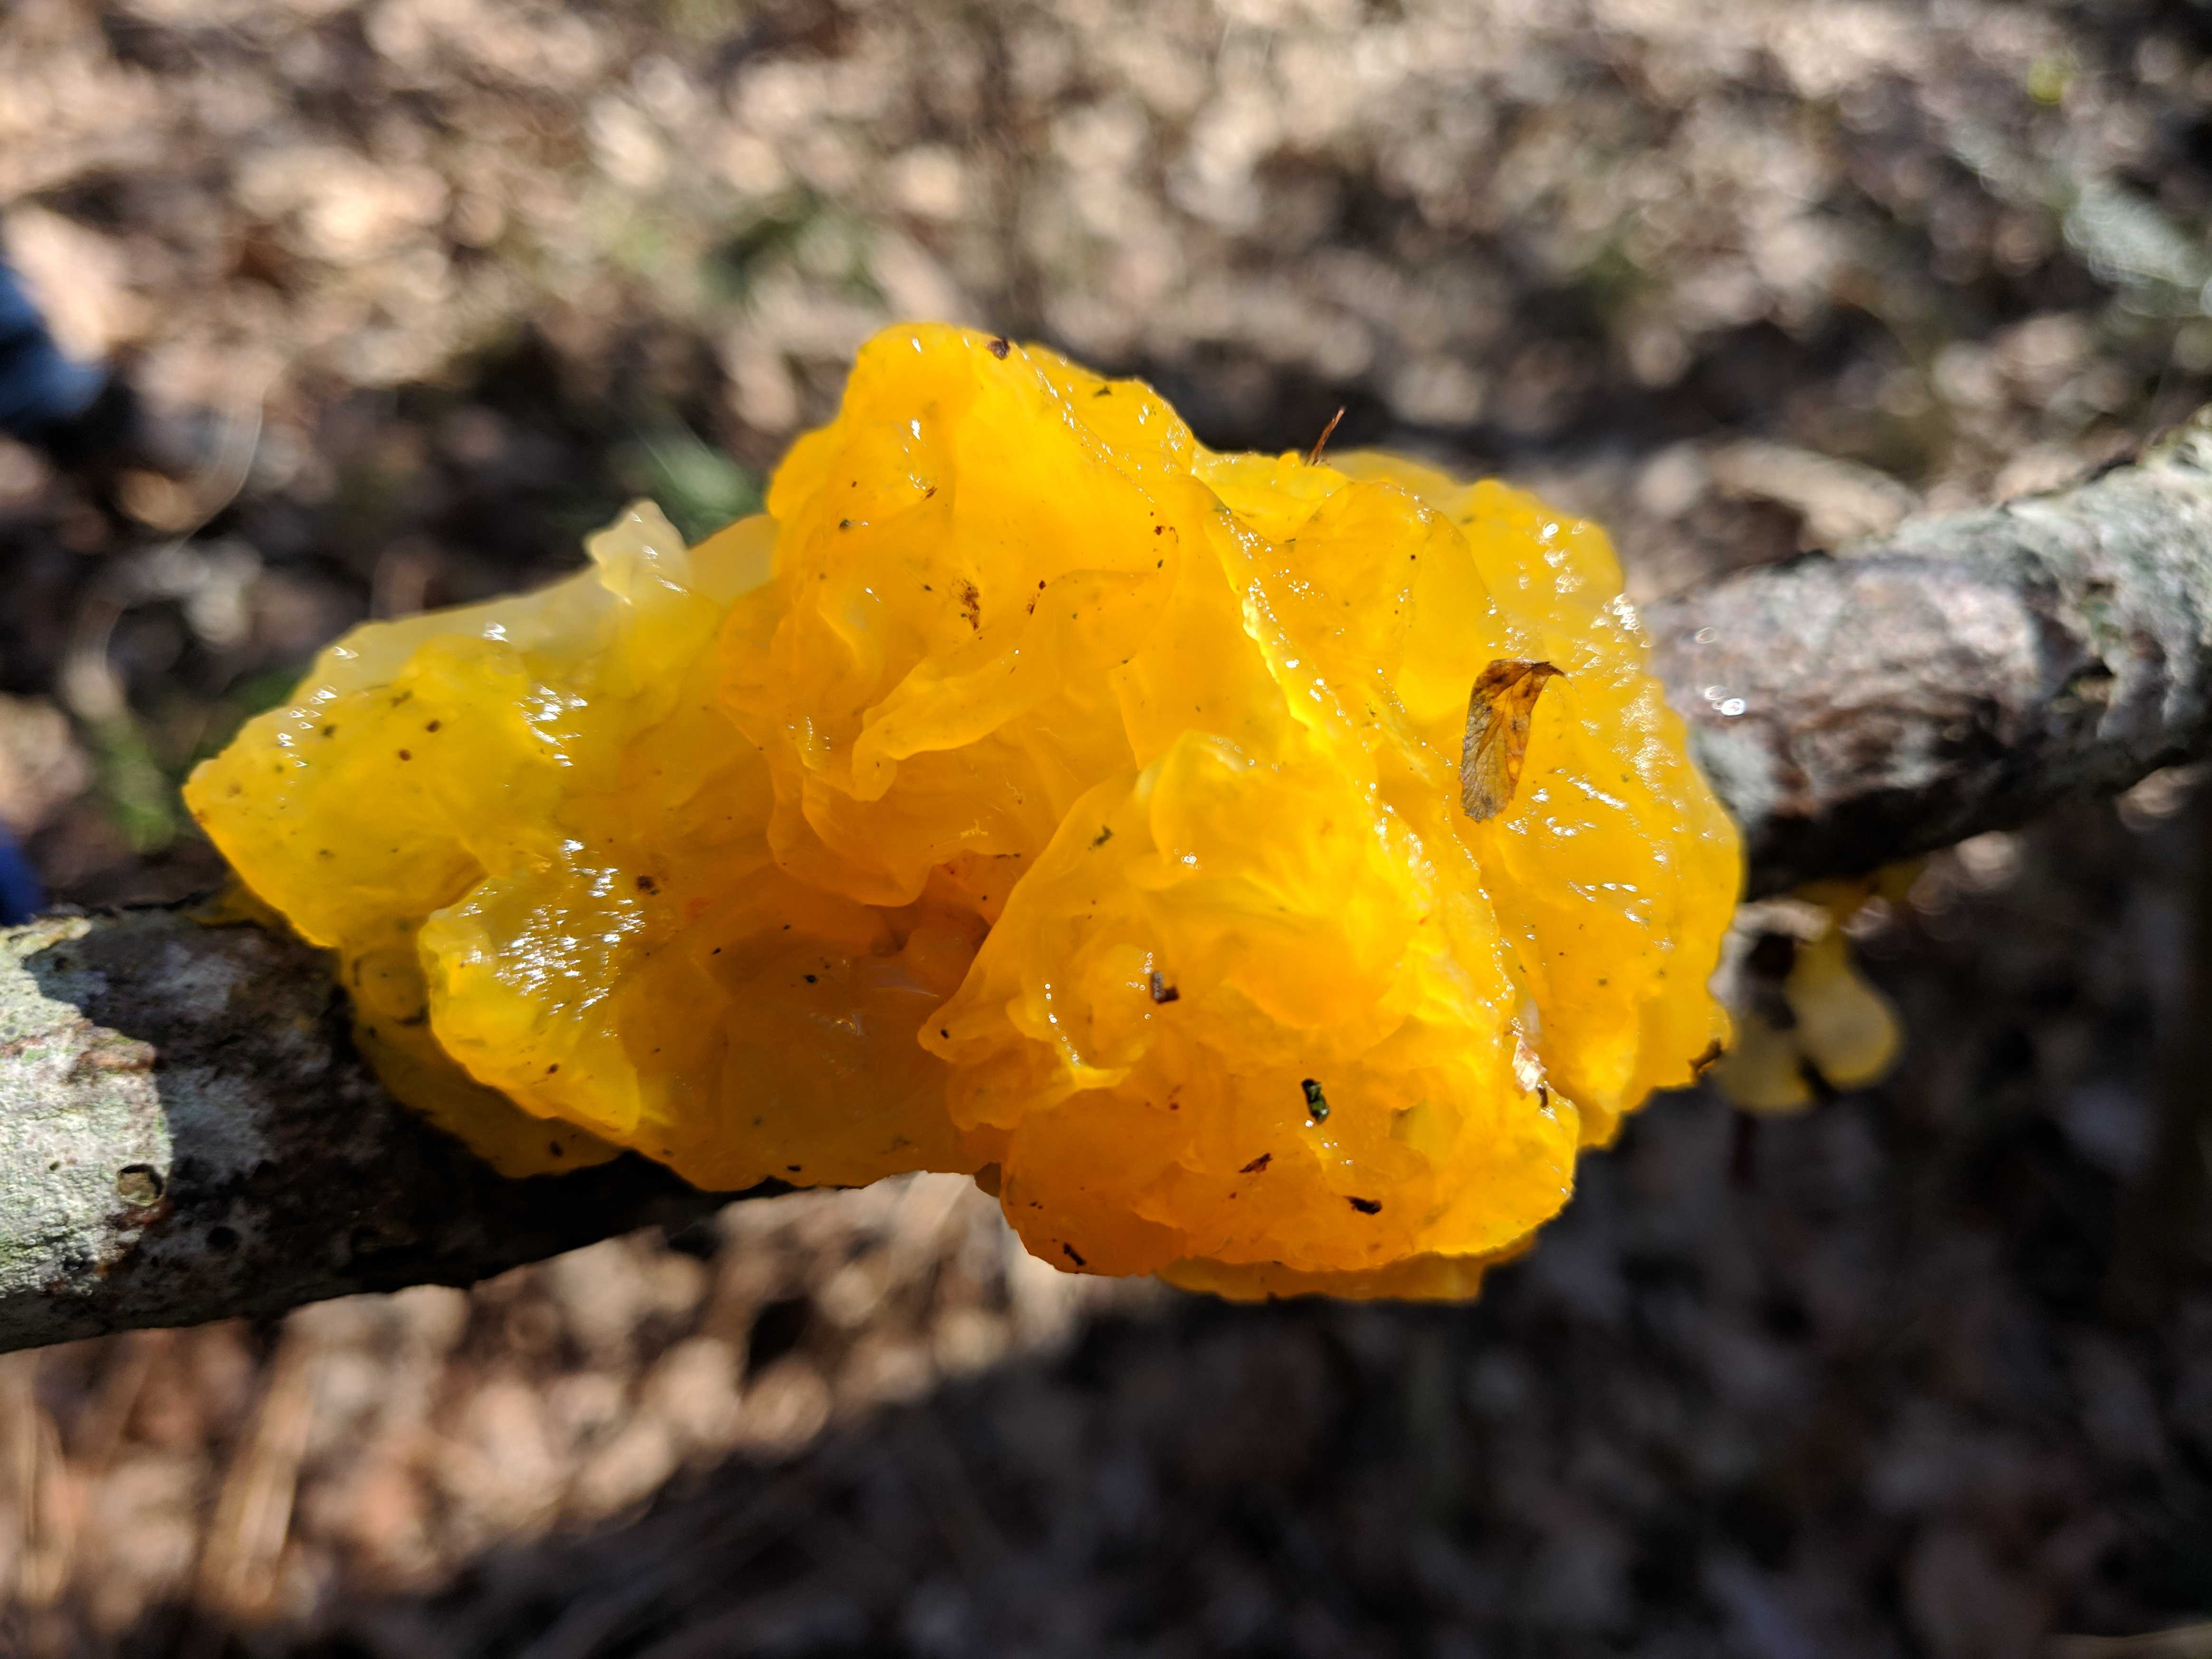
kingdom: Fungi
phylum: Basidiomycota
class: Tremellomycetes
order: Tremellales
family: Tremellaceae
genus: Tremella
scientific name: Tremella mesenterica
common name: gul bævresvamp
